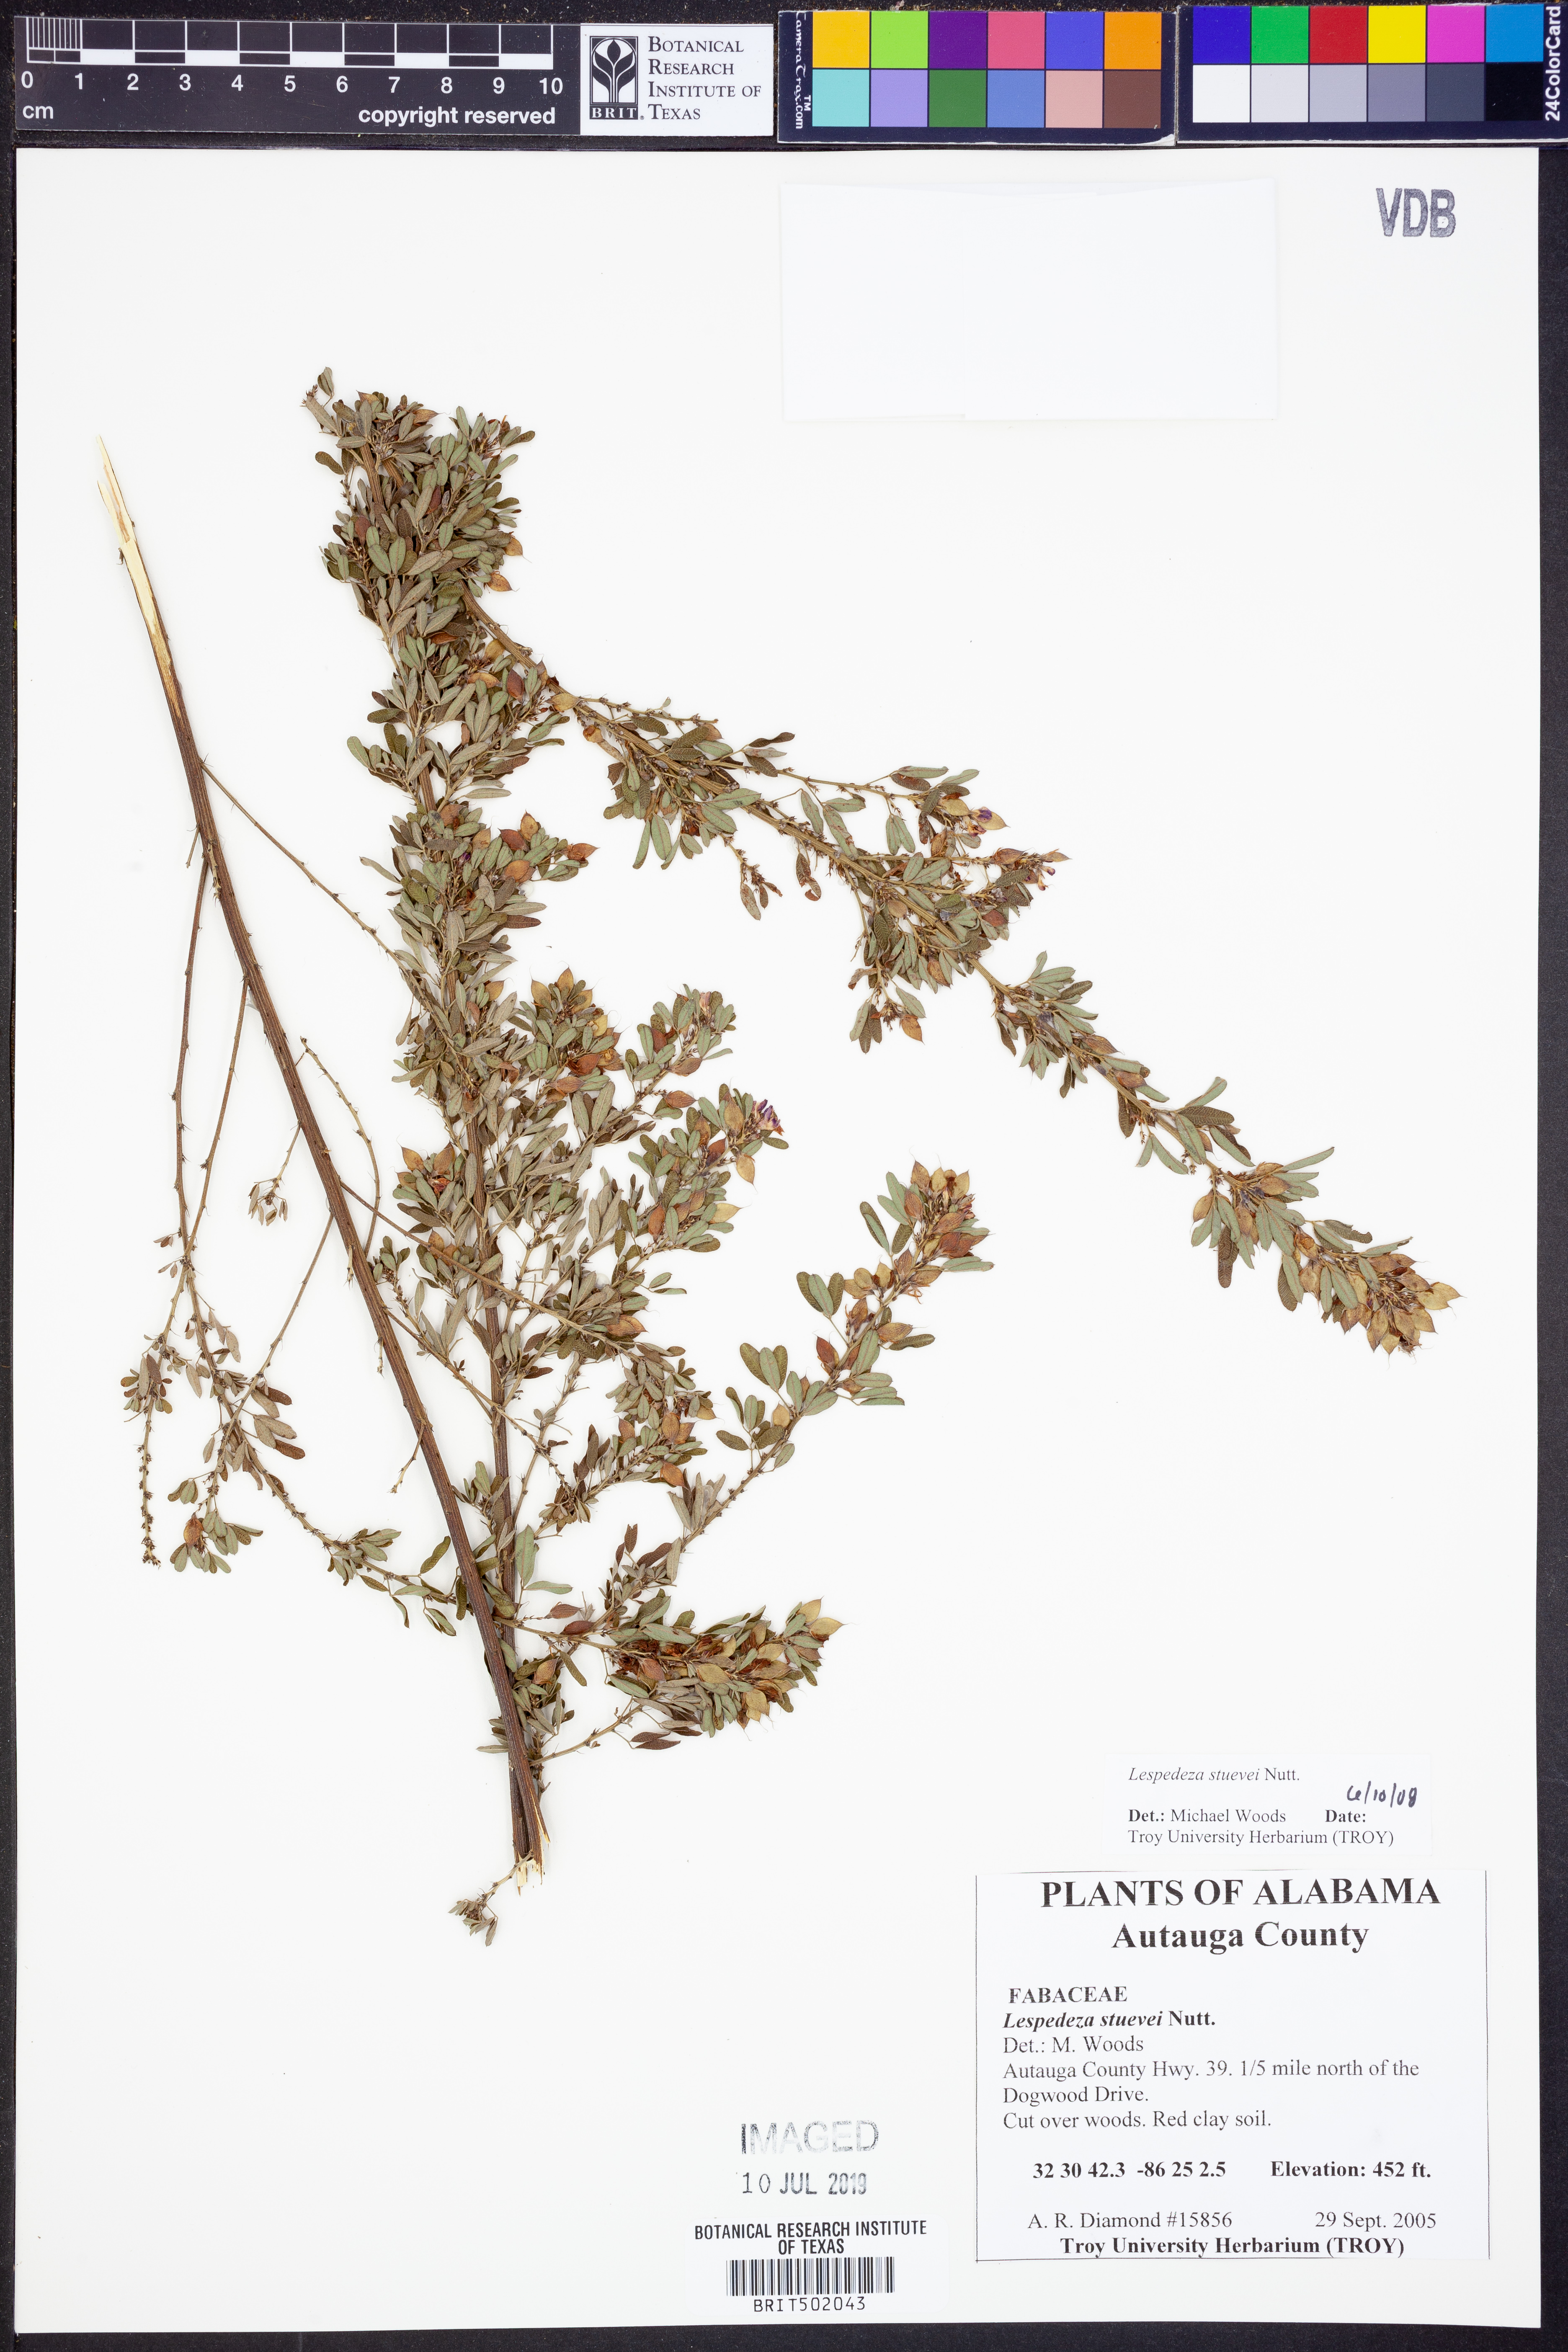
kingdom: Plantae
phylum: Tracheophyta
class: Magnoliopsida
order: Fabales
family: Fabaceae
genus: Lespedeza
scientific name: Lespedeza stuevei
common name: Tall bush-clover
